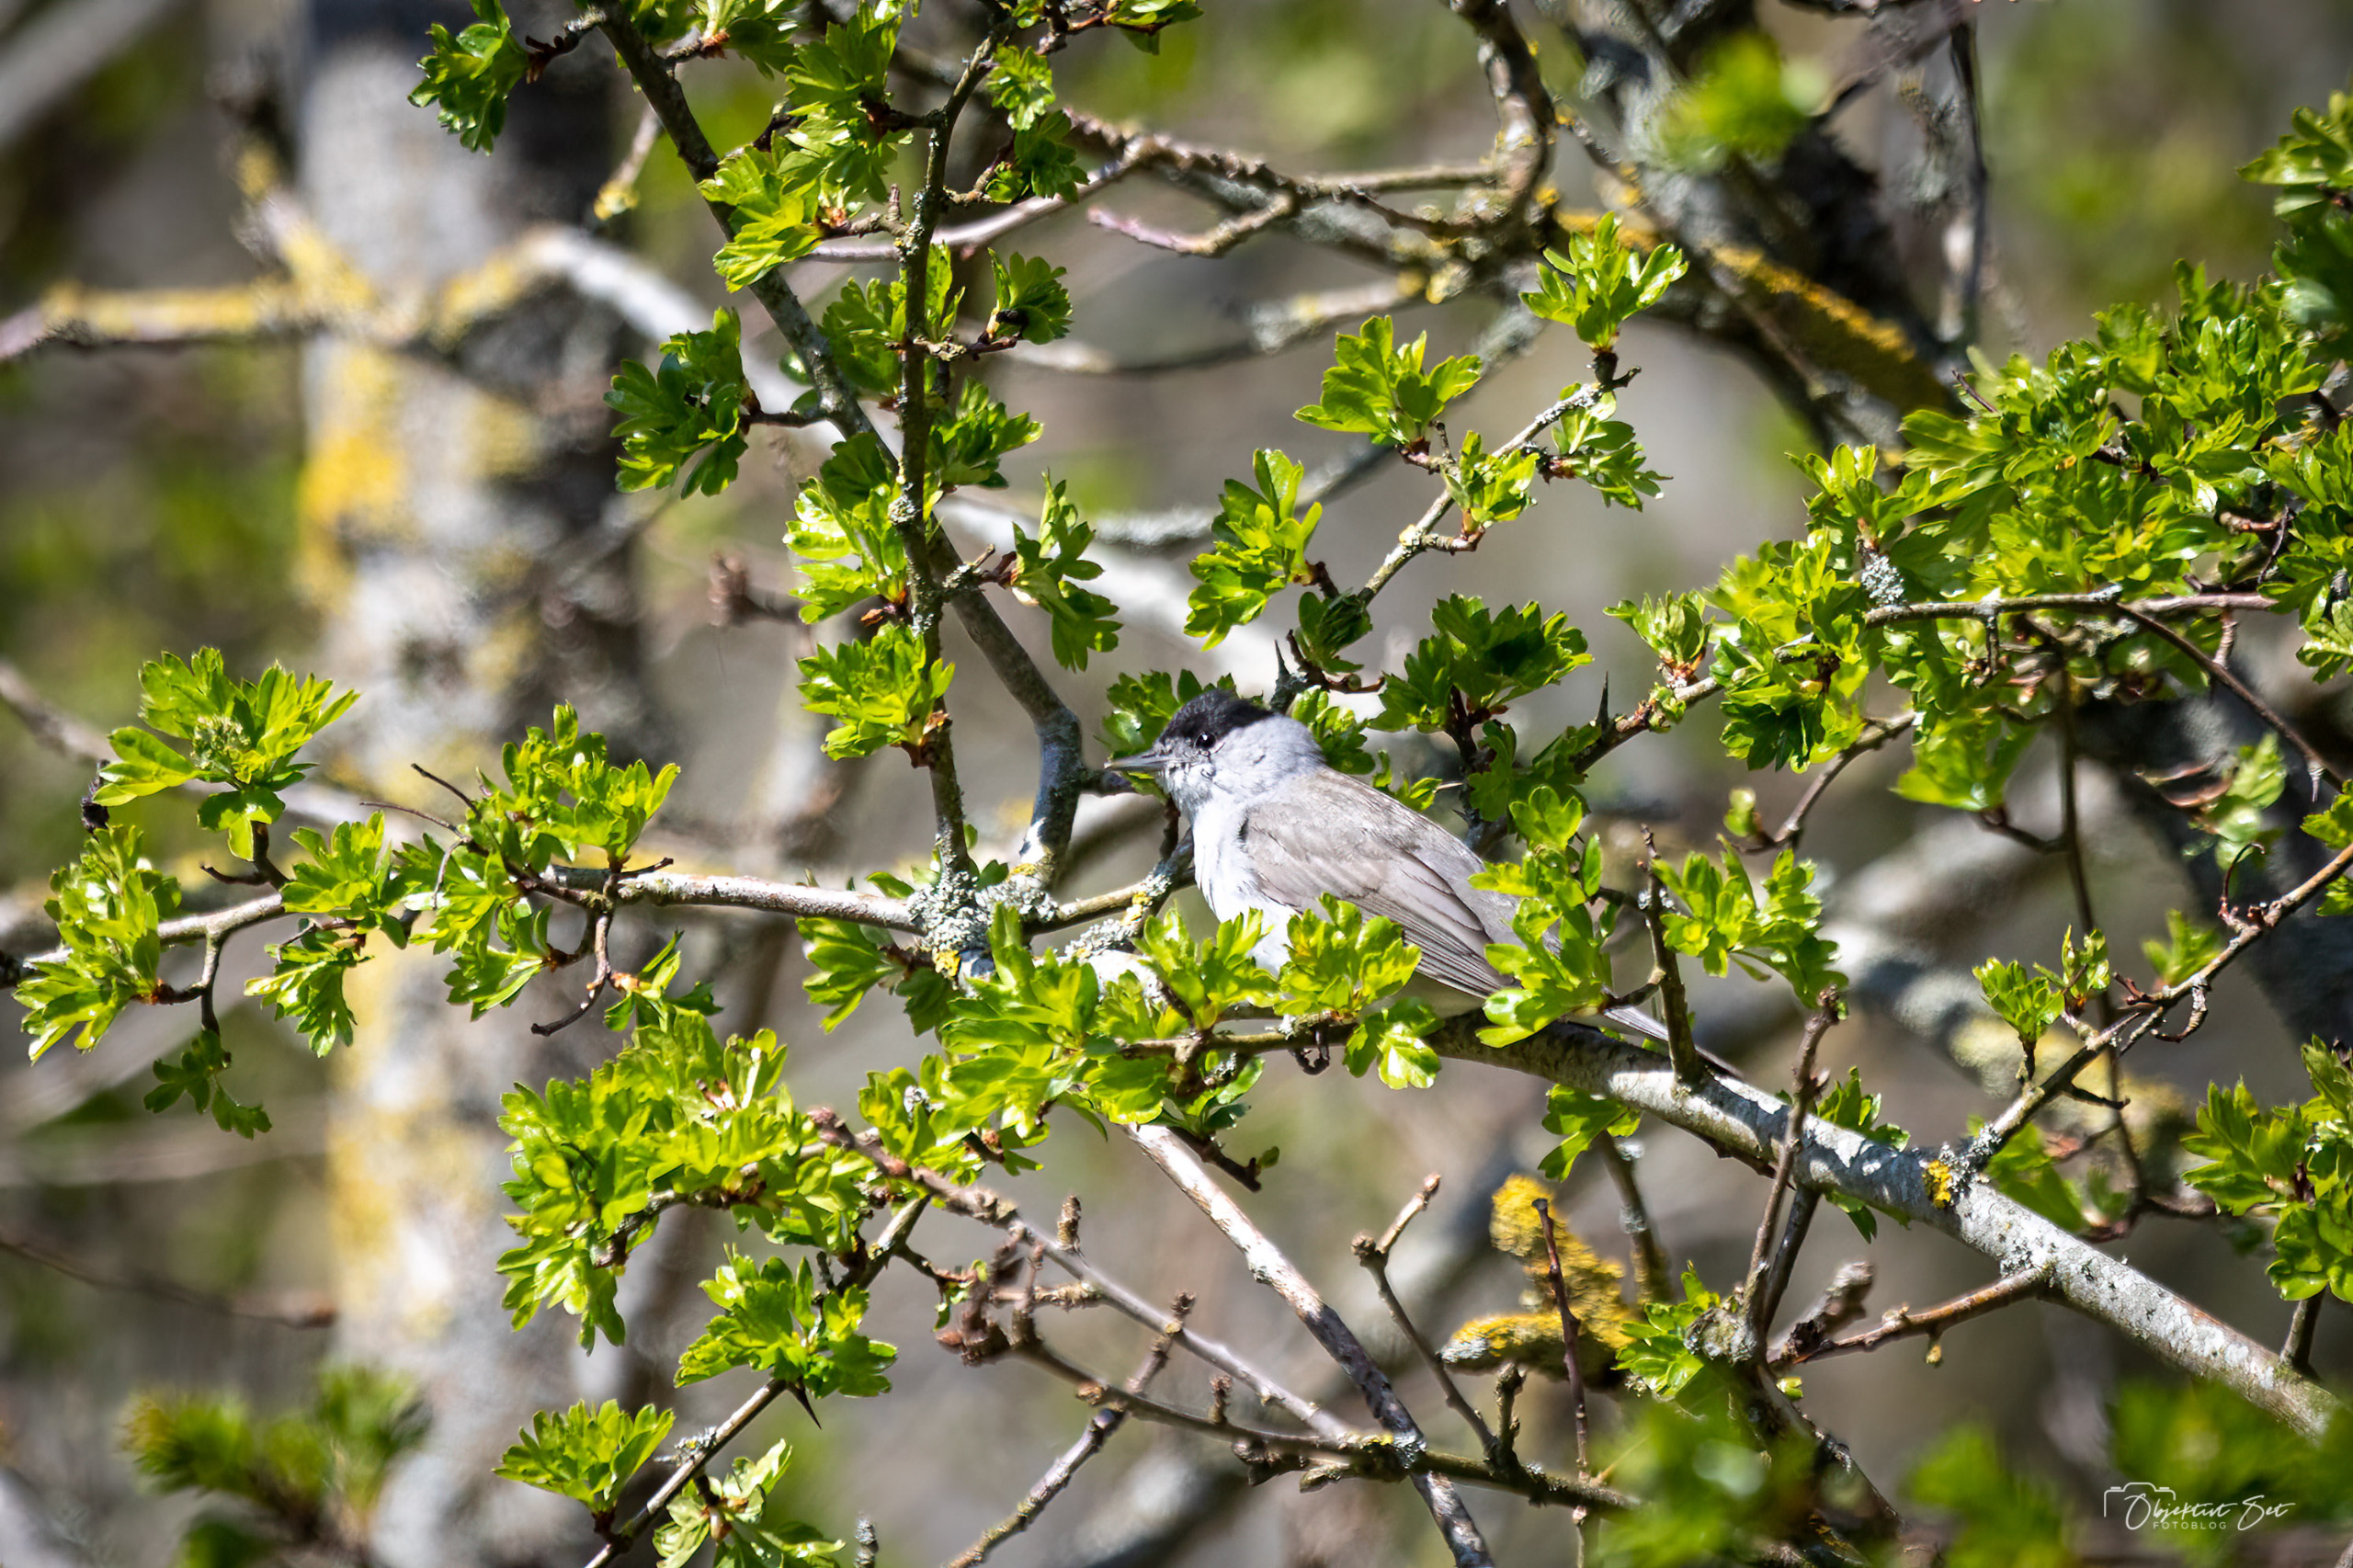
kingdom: Animalia
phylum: Chordata
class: Aves
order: Passeriformes
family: Sylviidae
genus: Sylvia
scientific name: Sylvia atricapilla
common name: Munk
